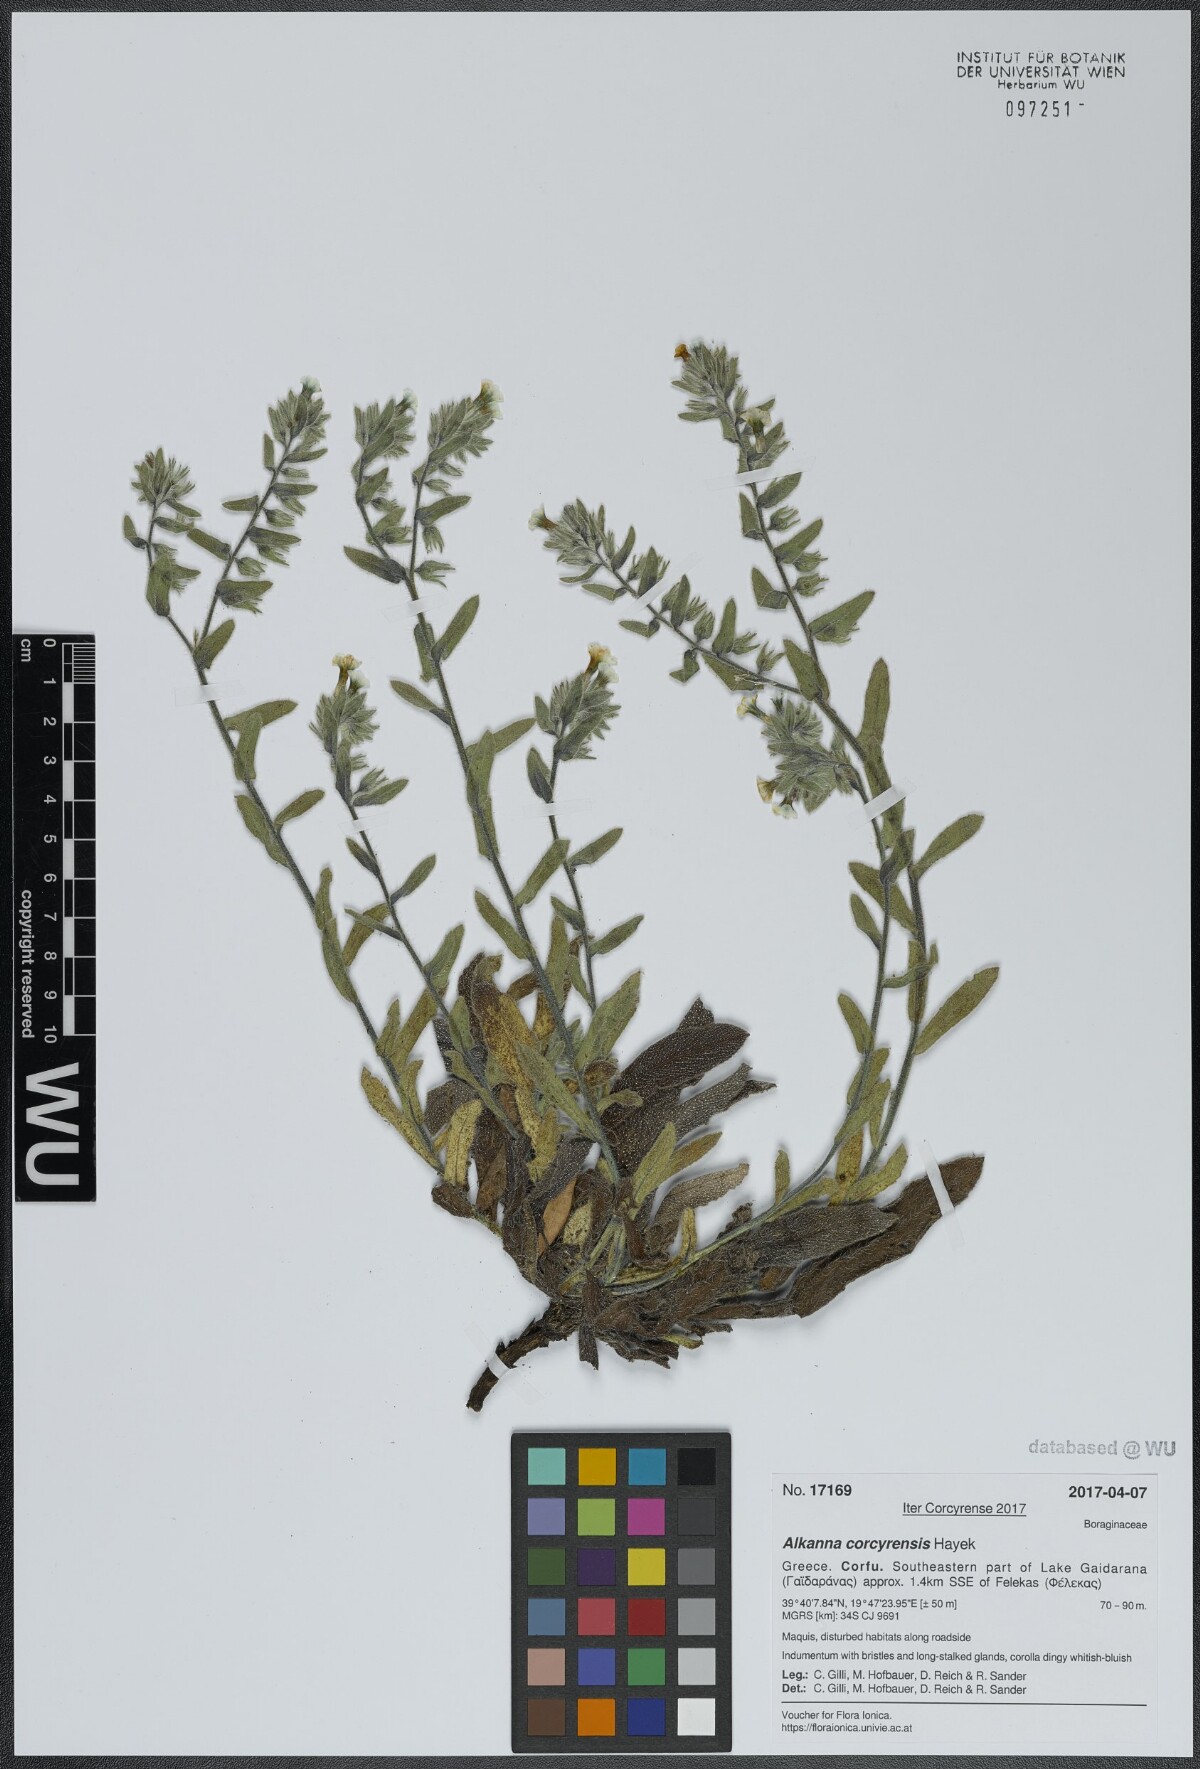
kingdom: Plantae
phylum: Tracheophyta
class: Magnoliopsida
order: Boraginales
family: Boraginaceae
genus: Alkanna
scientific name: Alkanna corcyrensis
